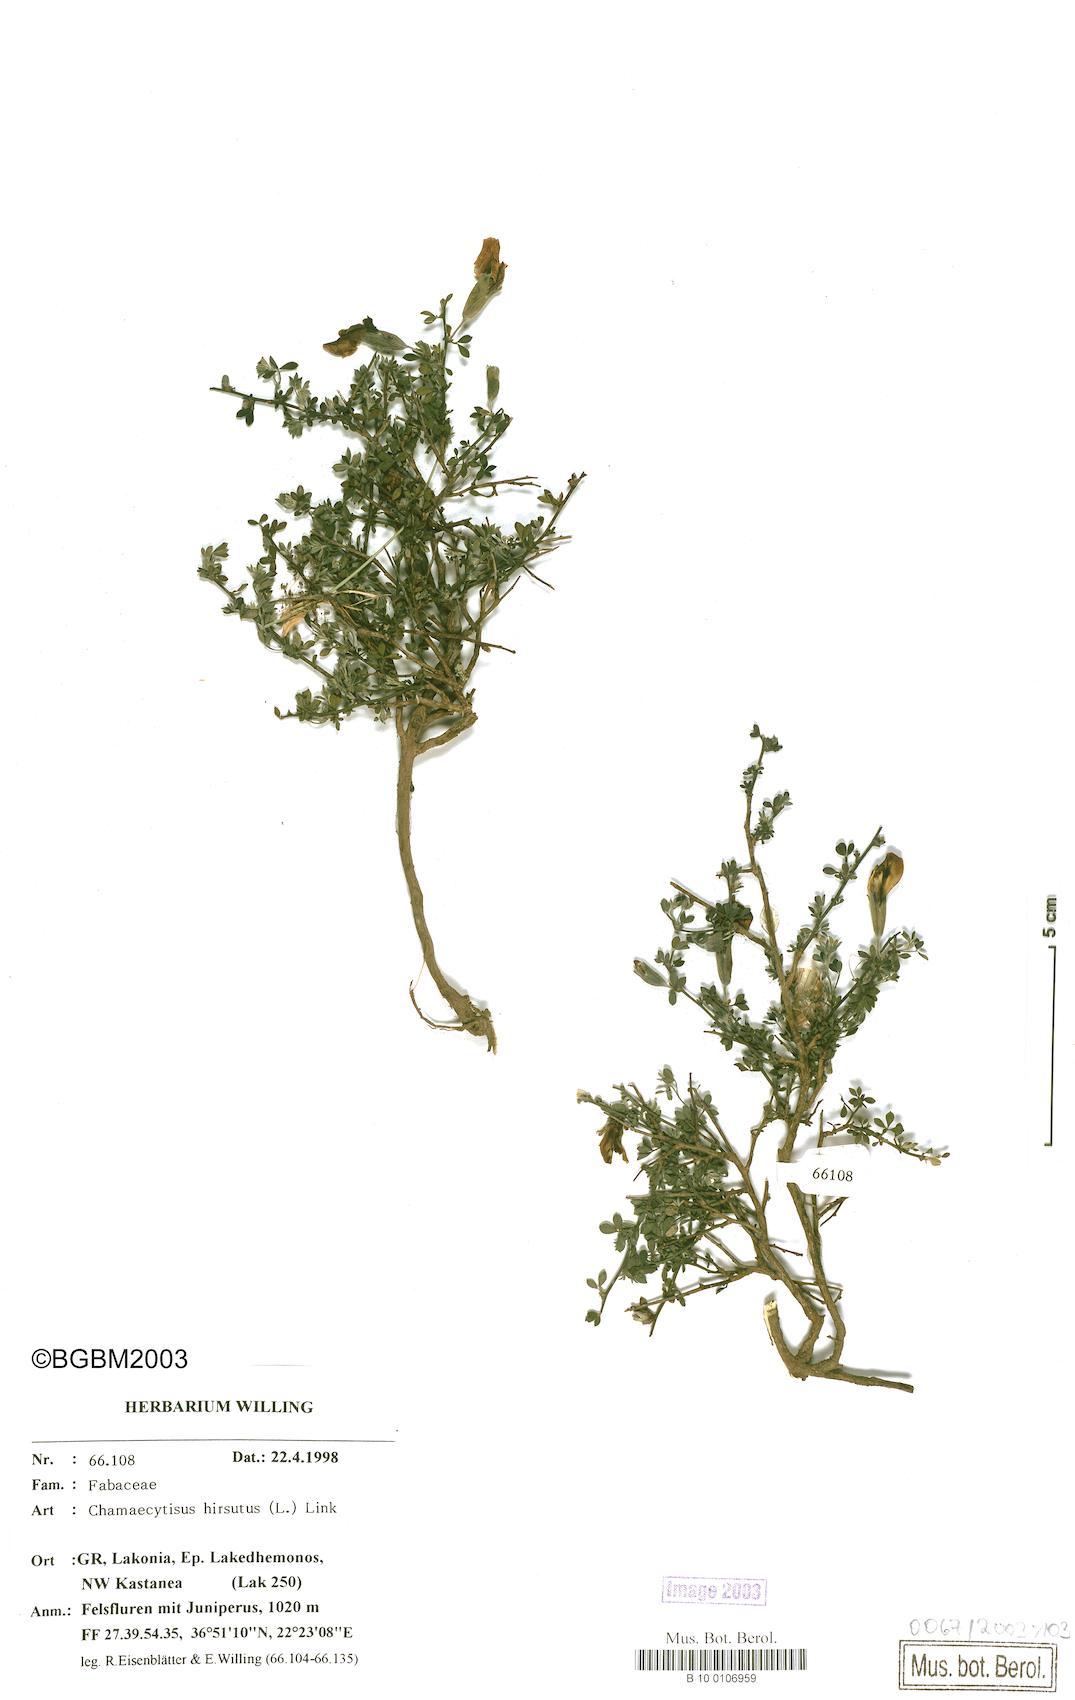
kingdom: Plantae
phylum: Tracheophyta
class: Magnoliopsida
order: Fabales
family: Fabaceae
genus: Chamaecytisus
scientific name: Chamaecytisus hirsutus
